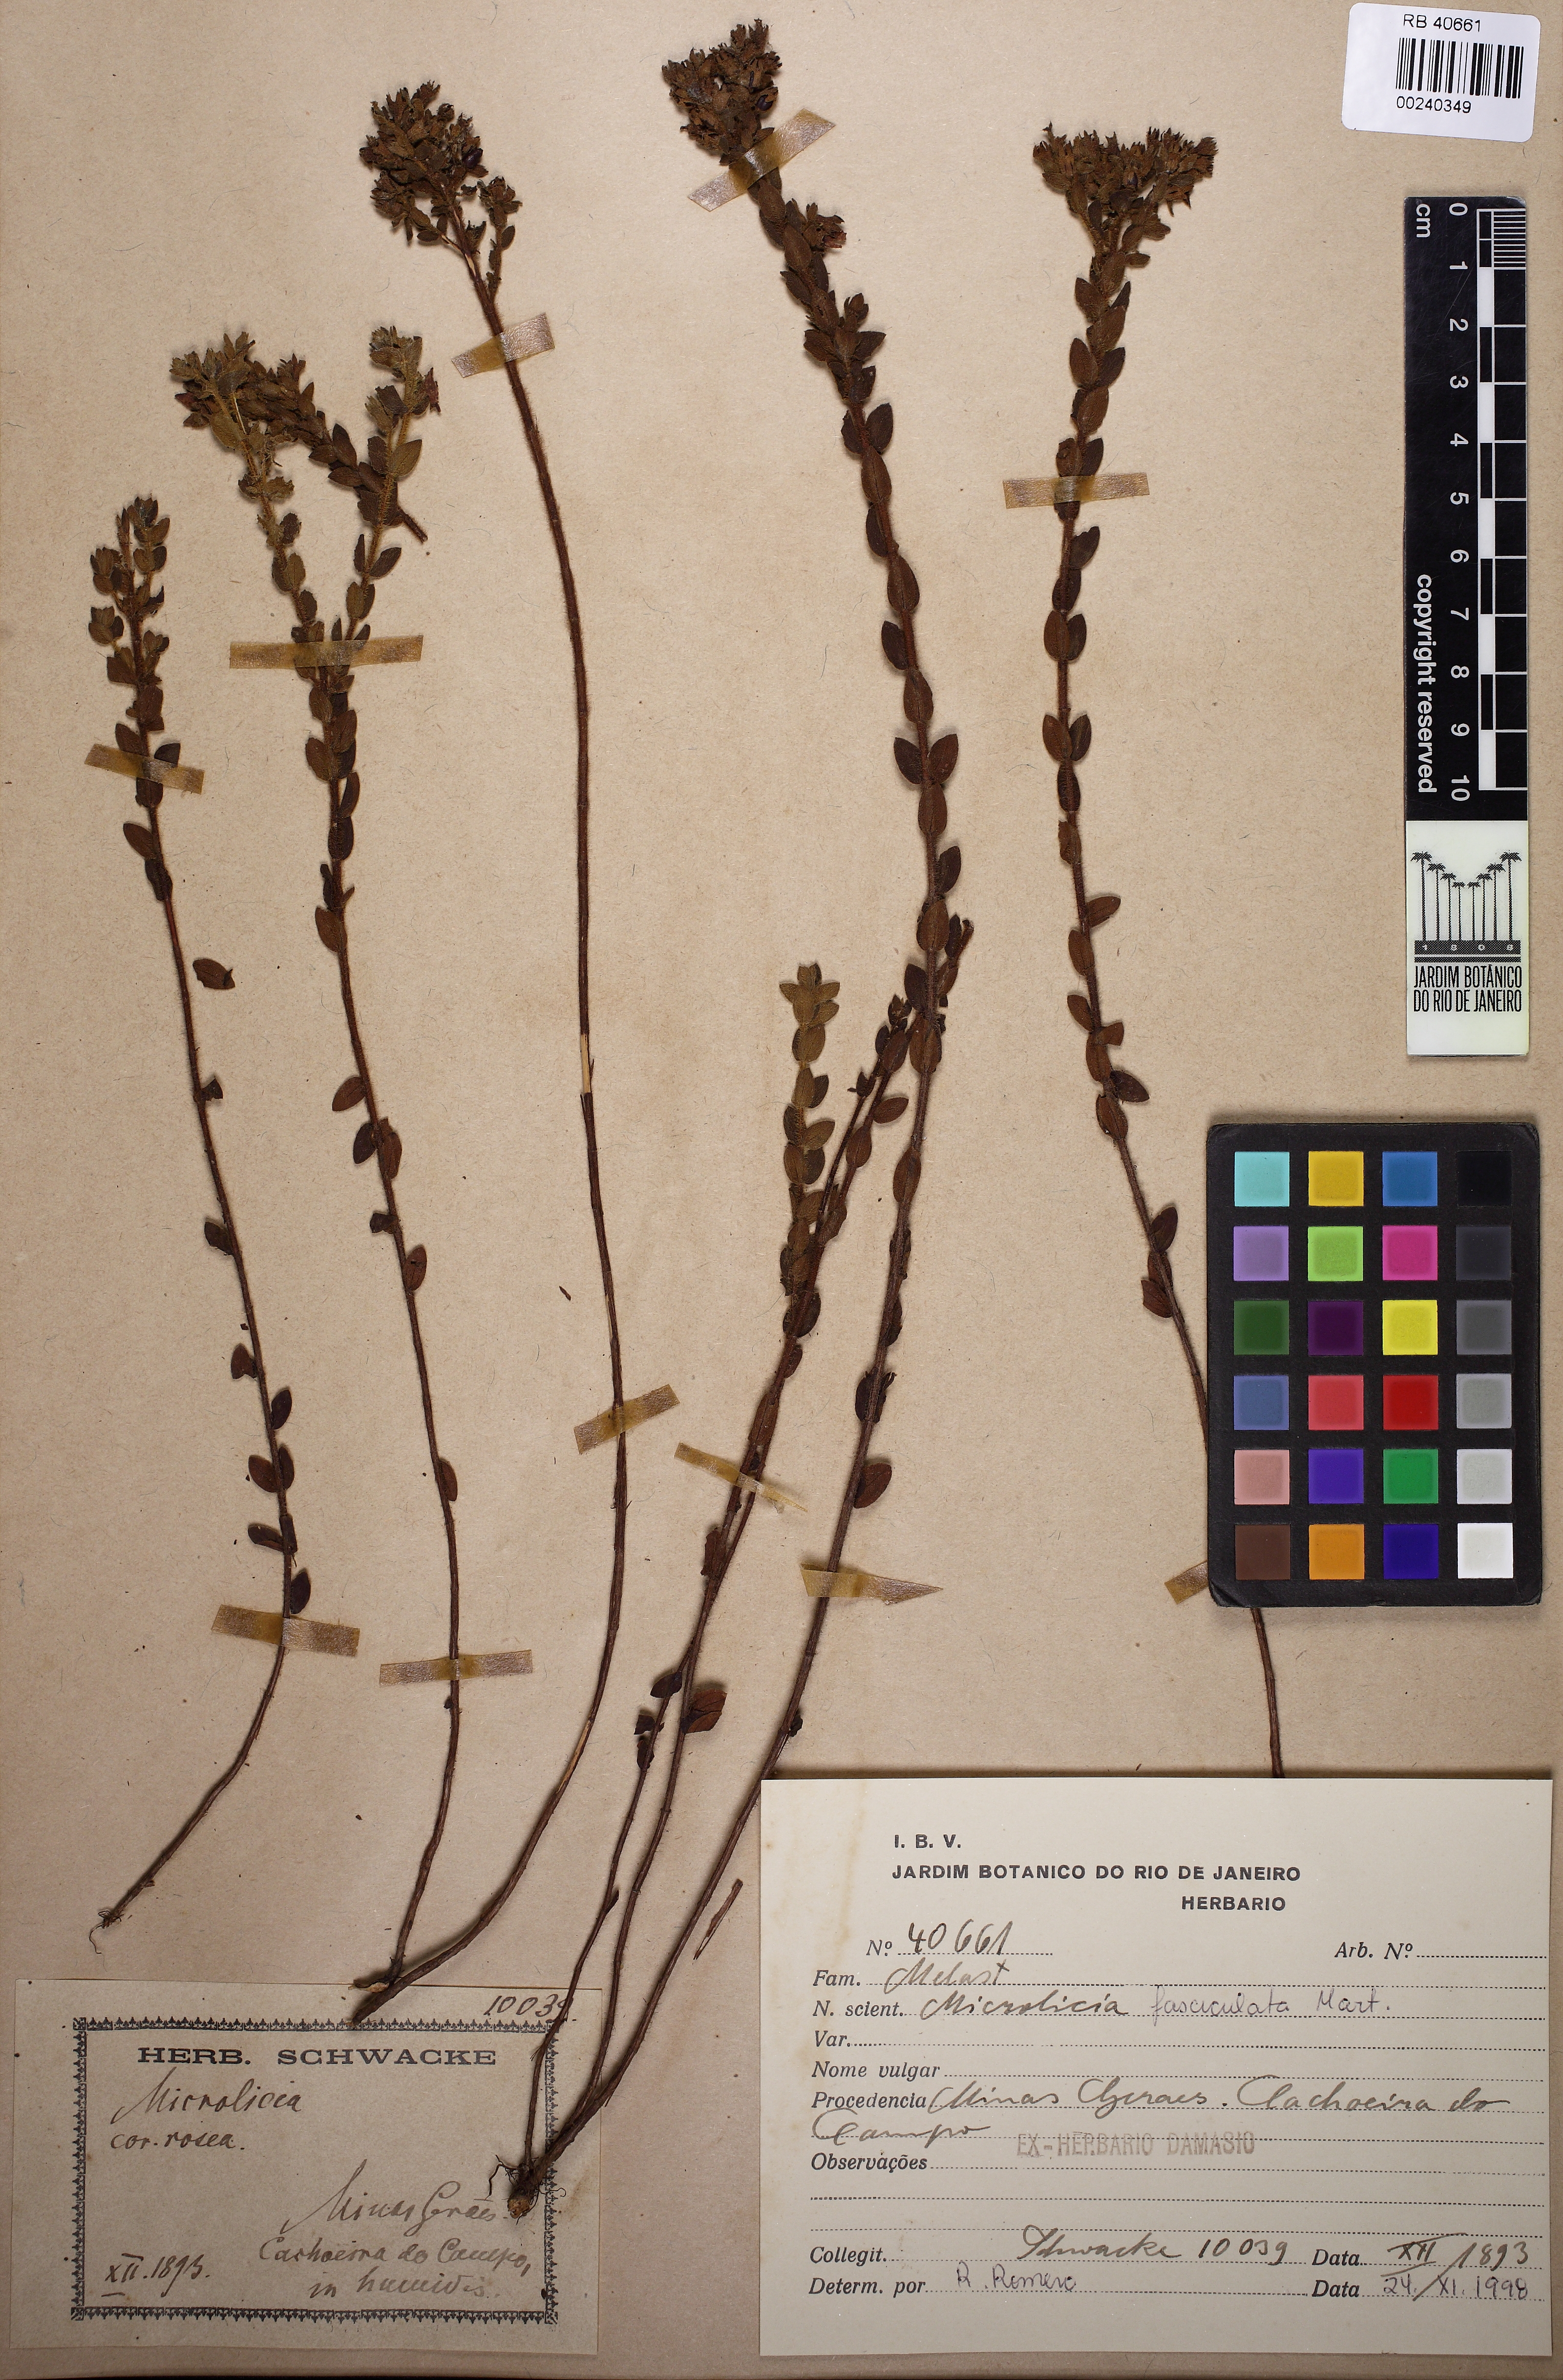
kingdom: Plantae
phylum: Tracheophyta
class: Magnoliopsida
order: Myrtales
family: Melastomataceae
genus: Microlicia
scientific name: Microlicia hirsuta
